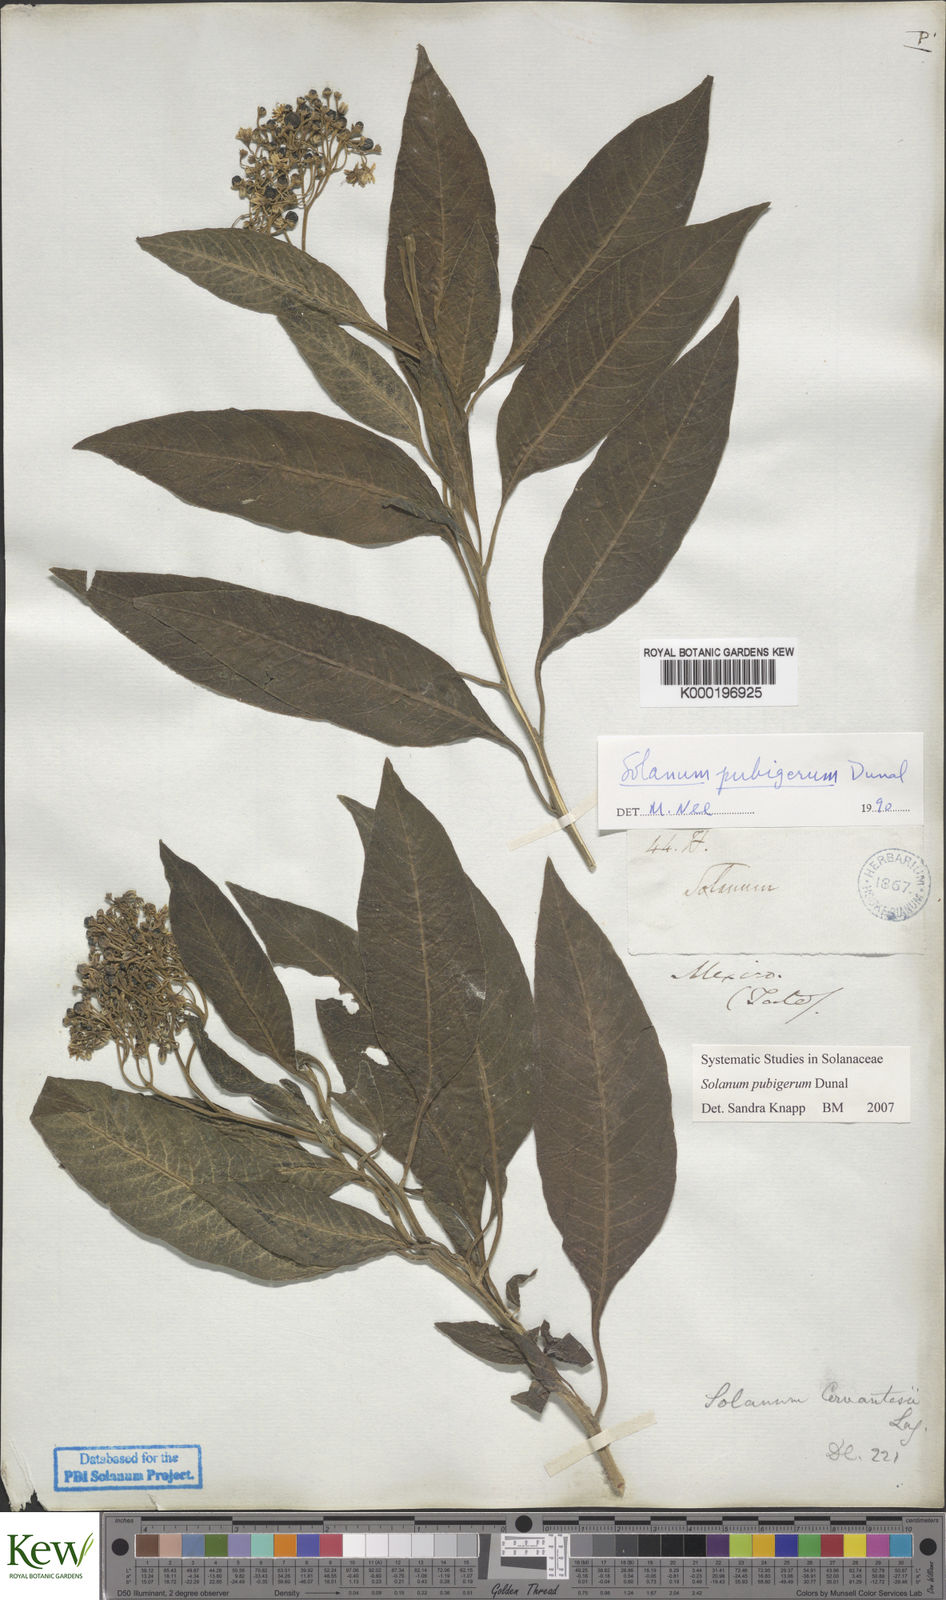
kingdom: Plantae
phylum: Tracheophyta
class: Magnoliopsida
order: Solanales
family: Solanaceae
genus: Solanum
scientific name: Solanum pubigerum
